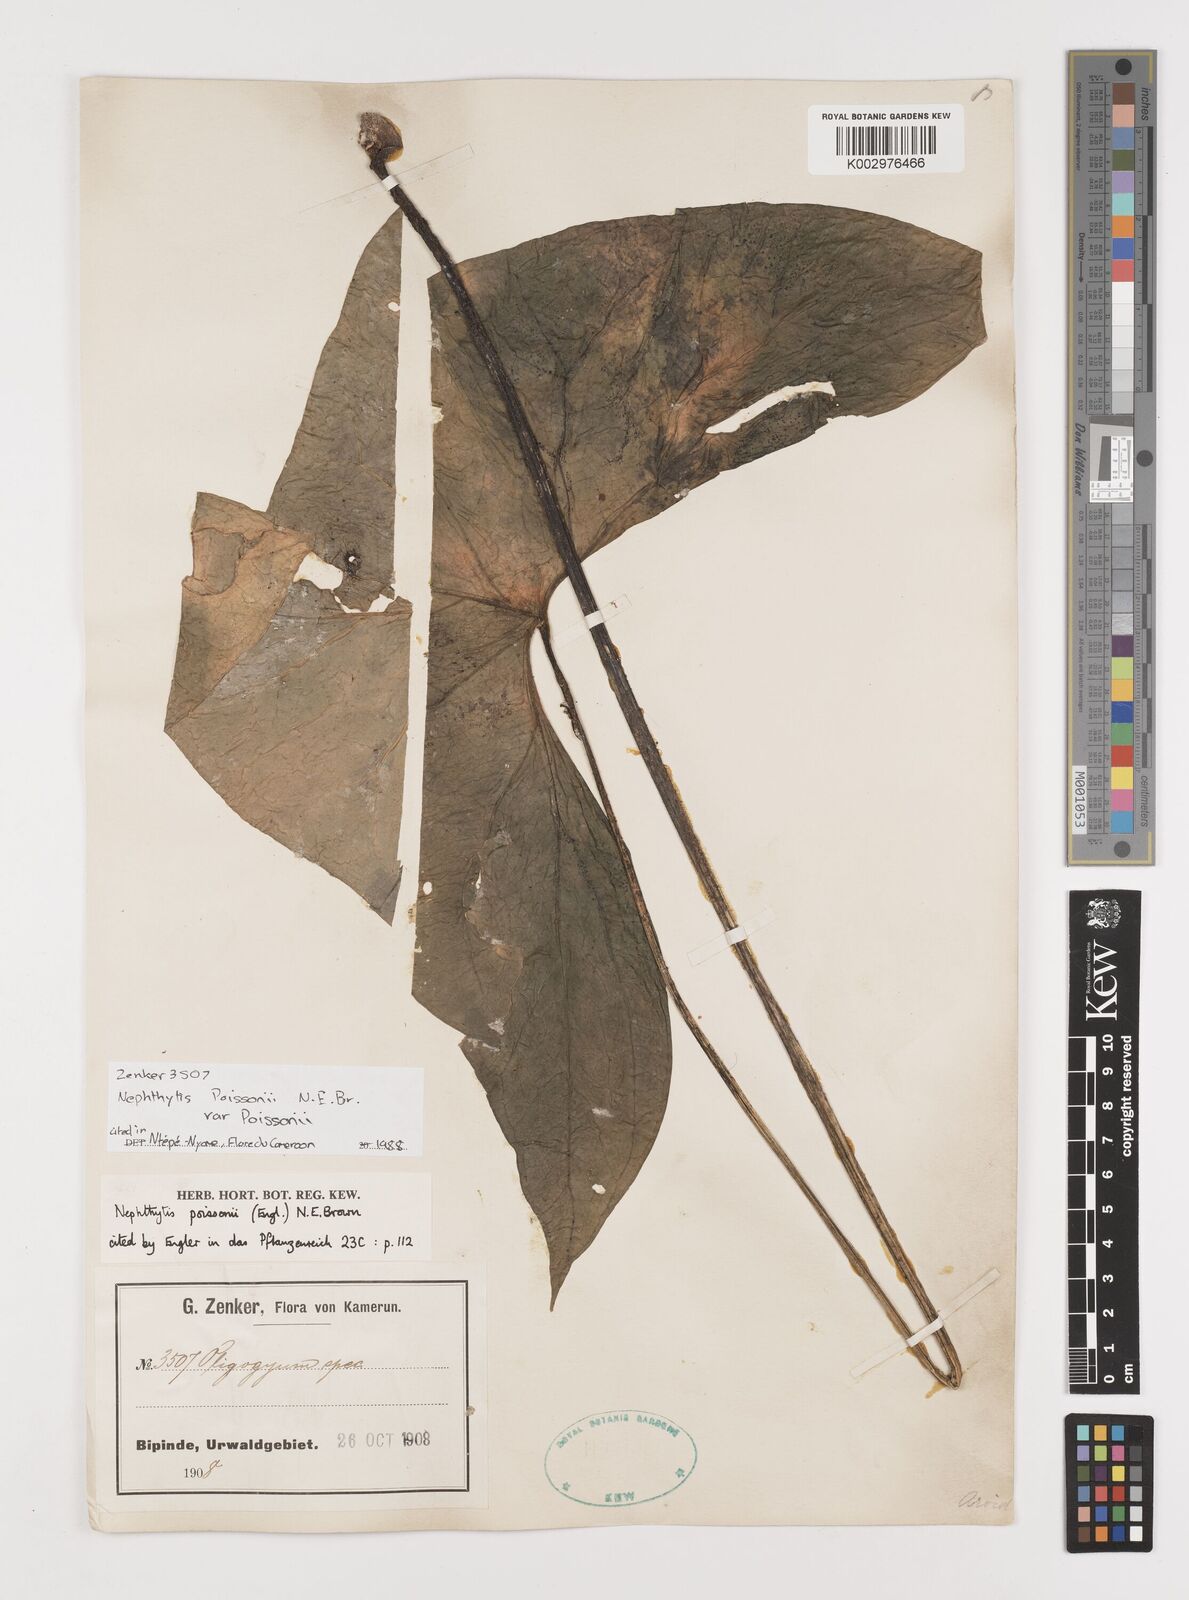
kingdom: Plantae
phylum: Tracheophyta
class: Liliopsida
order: Alismatales
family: Araceae
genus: Nephthytis
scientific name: Nephthytis poissonii
